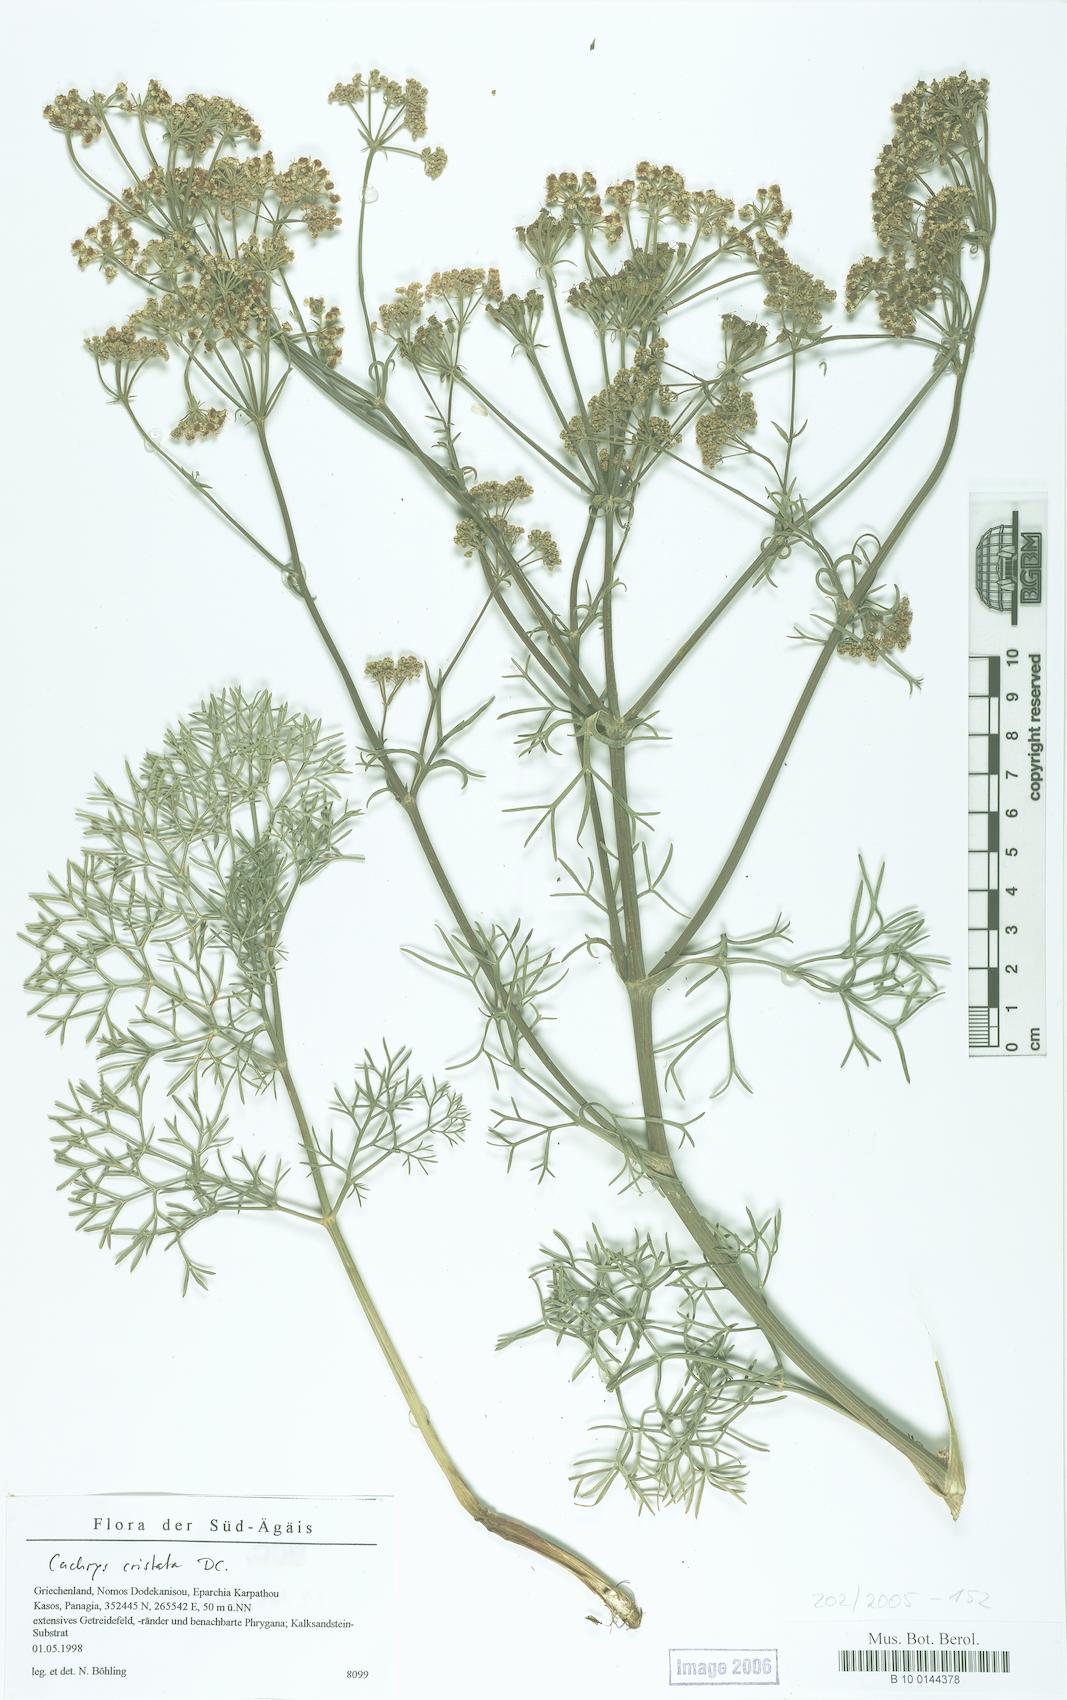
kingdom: Plantae
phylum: Tracheophyta
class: Magnoliopsida
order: Apiales
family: Apiaceae
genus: Cachrys
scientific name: Cachrys cristata
